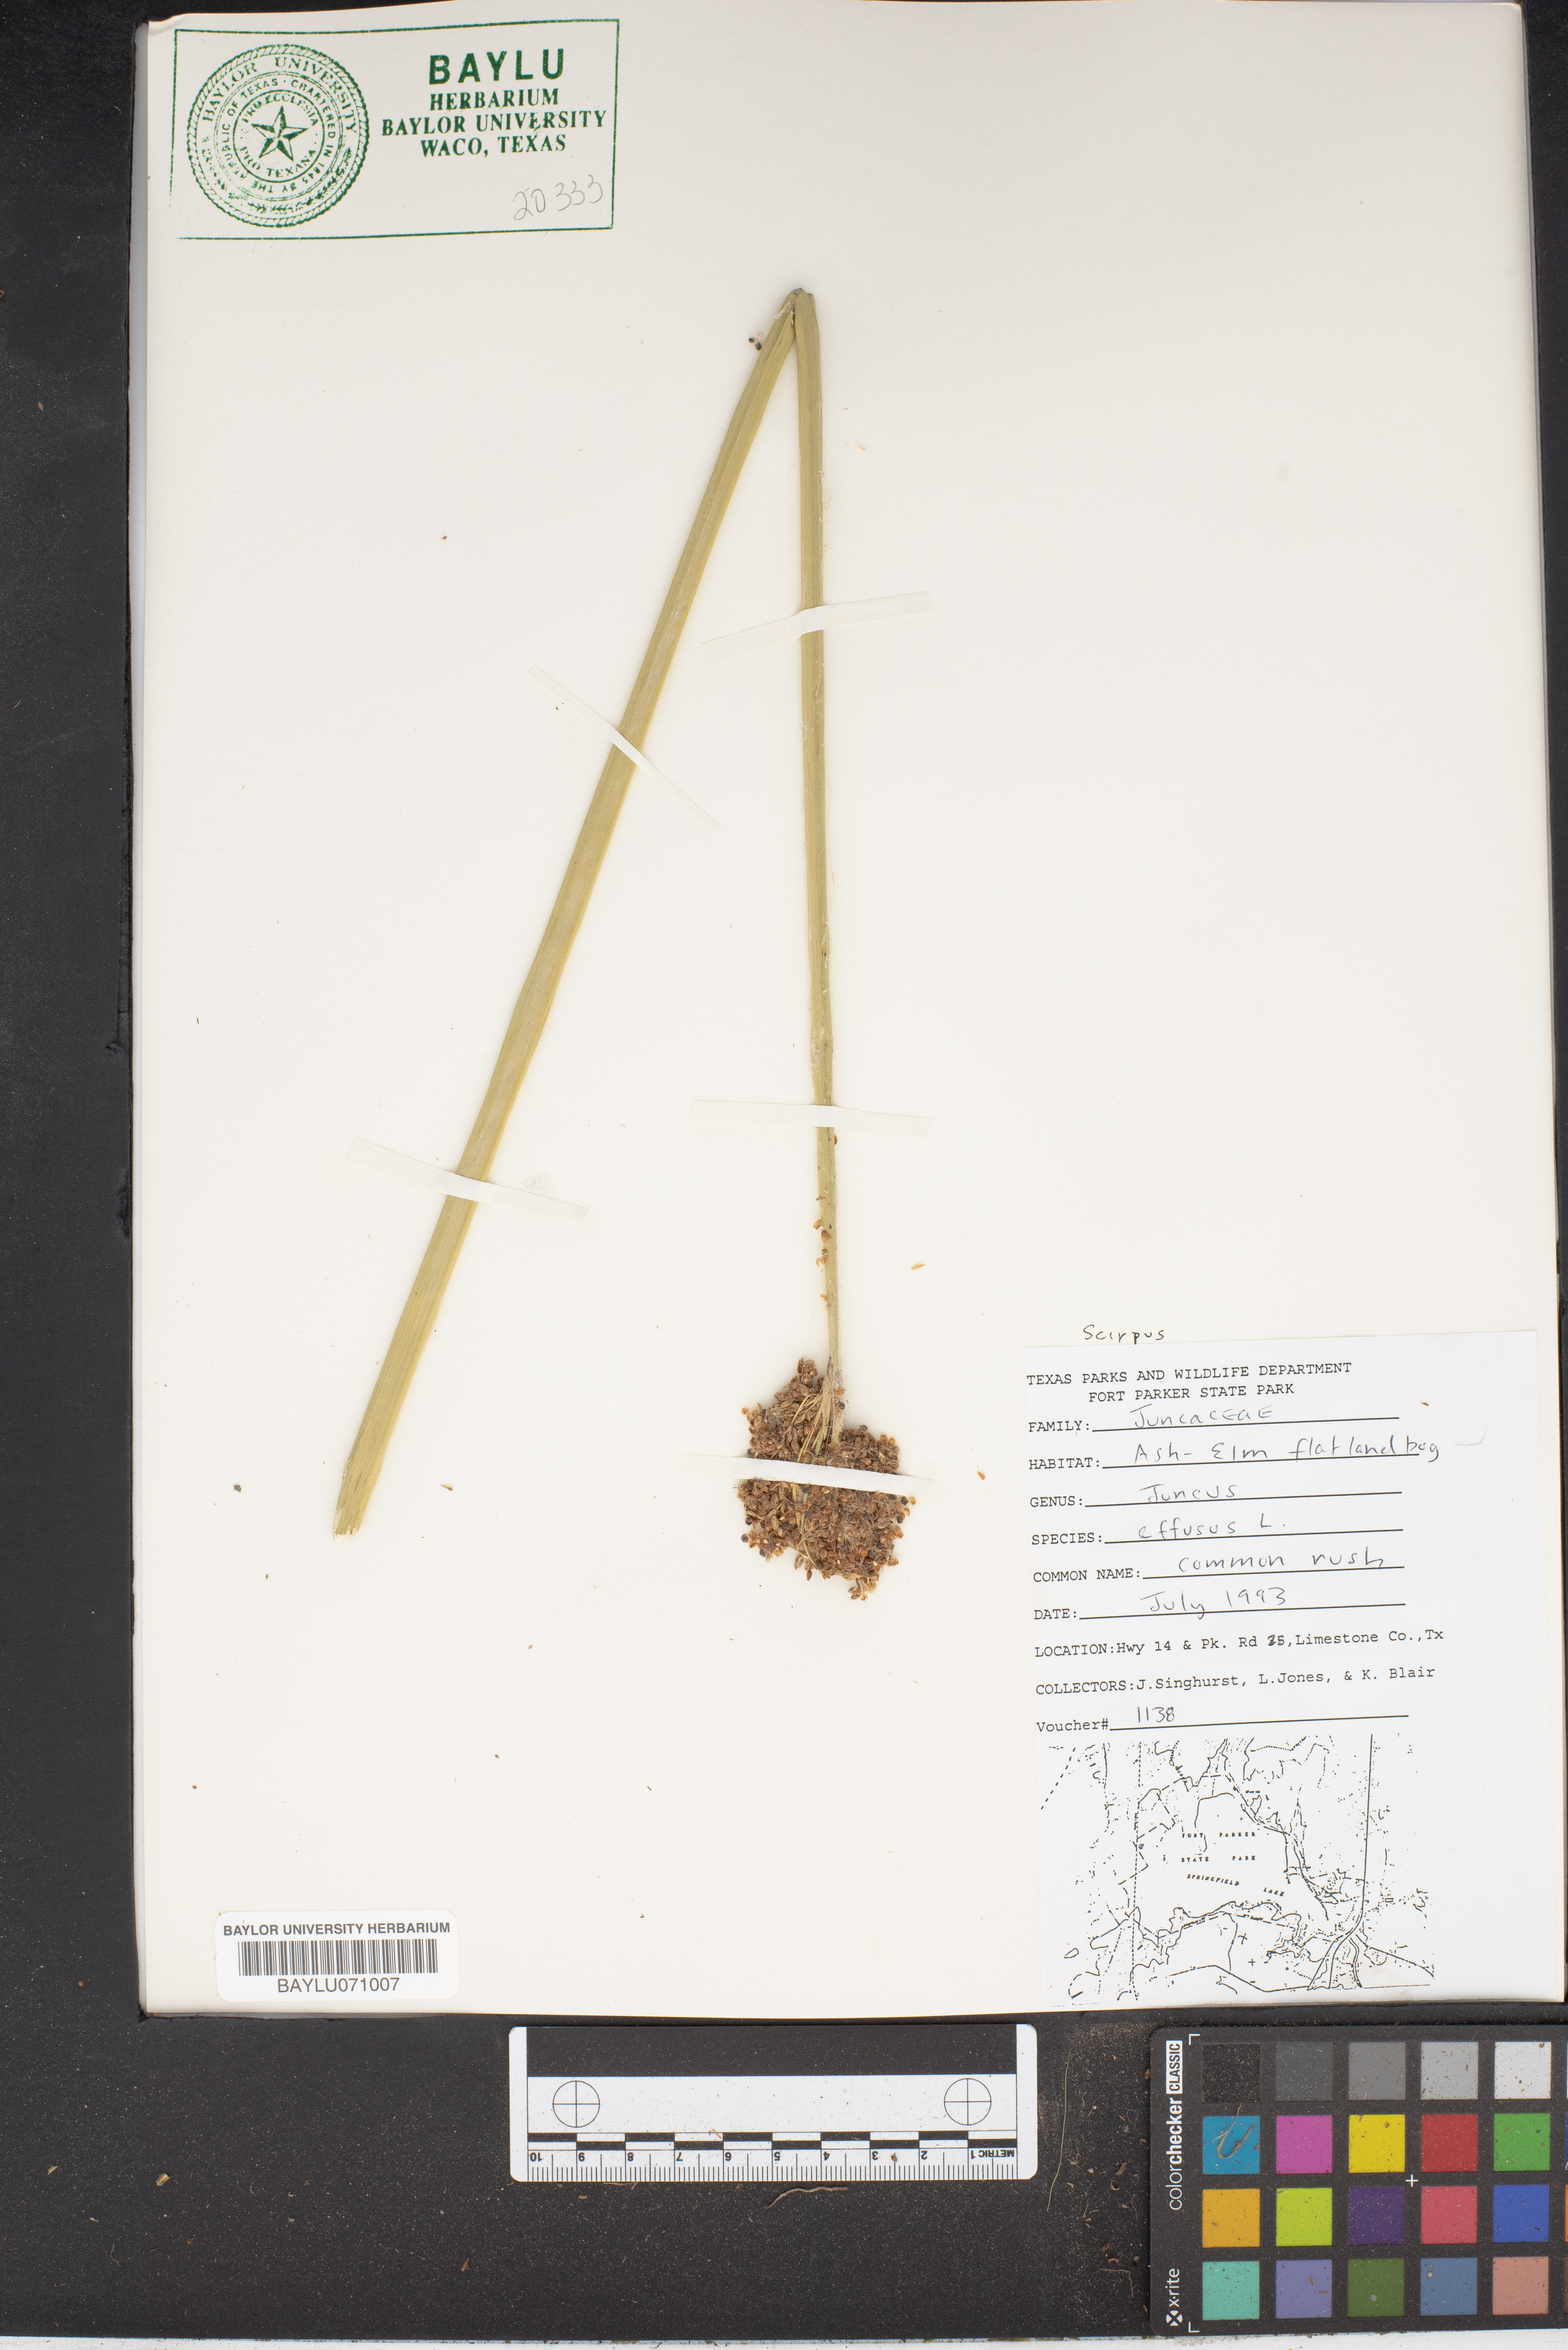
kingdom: Plantae
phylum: Tracheophyta
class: Liliopsida
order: Poales
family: Juncaceae
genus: Juncus
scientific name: Juncus effusus
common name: Soft rush
